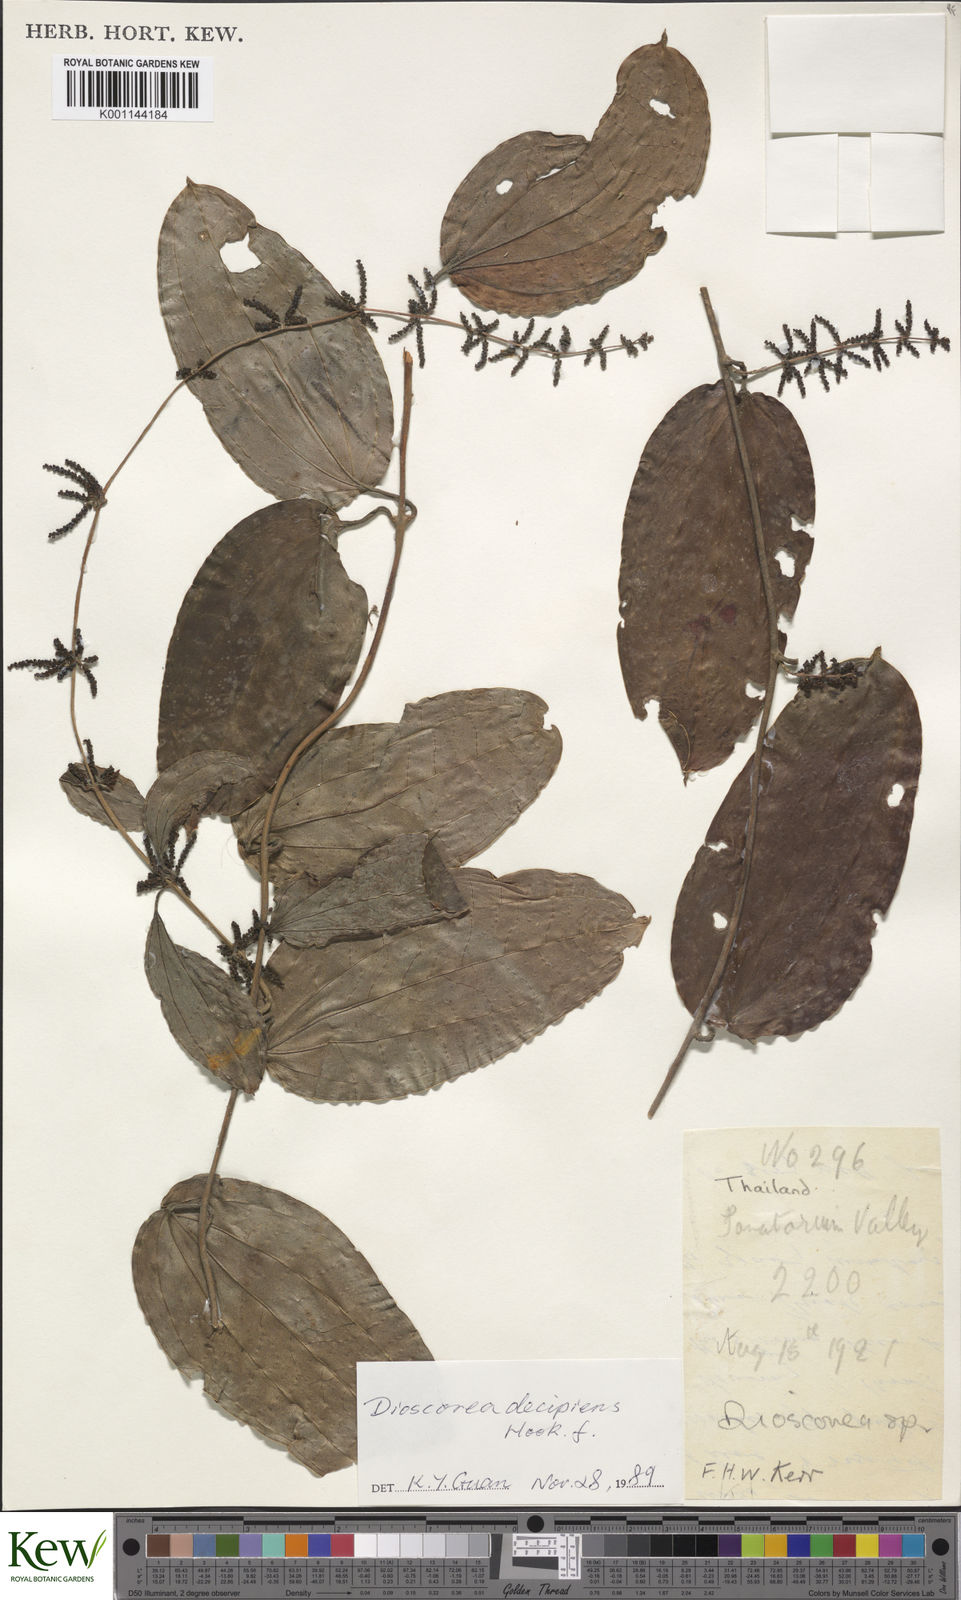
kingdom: Plantae
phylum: Tracheophyta
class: Liliopsida
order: Dioscoreales
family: Dioscoreaceae
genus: Dioscorea
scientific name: Dioscorea decipiens
